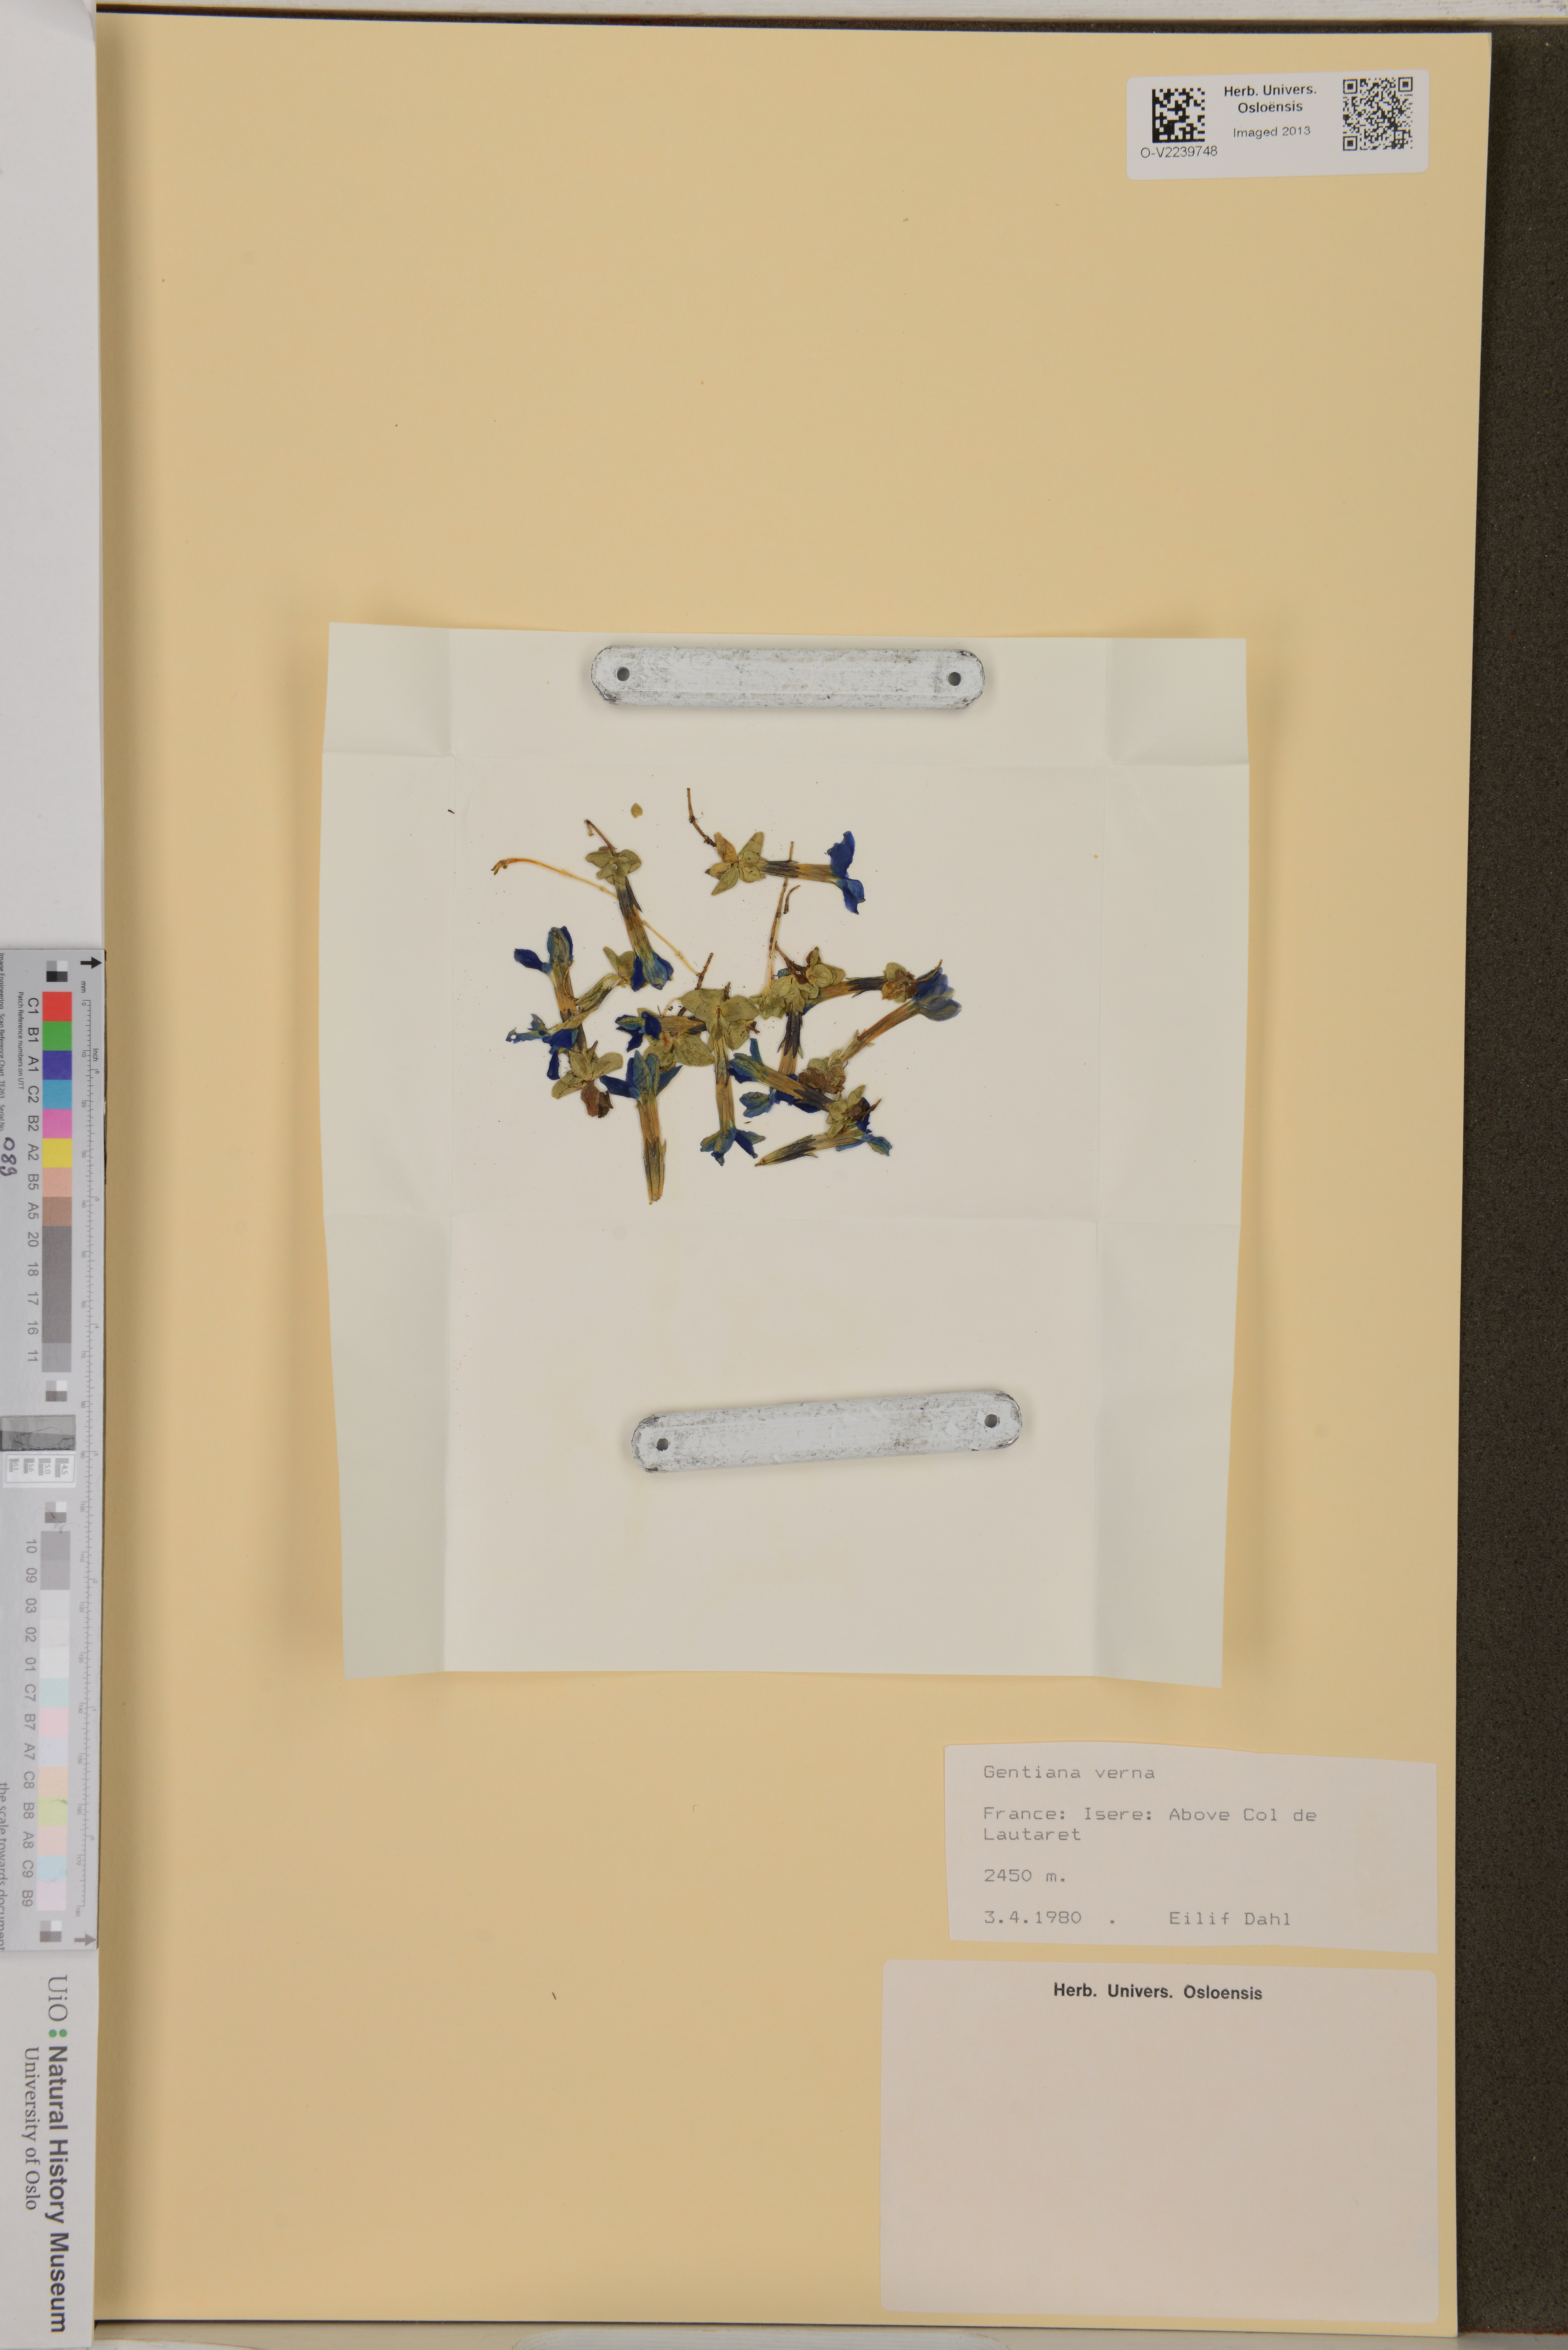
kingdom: Plantae
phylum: Tracheophyta
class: Magnoliopsida
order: Gentianales
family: Gentianaceae
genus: Gentiana
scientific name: Gentiana verna
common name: Spring gentian
